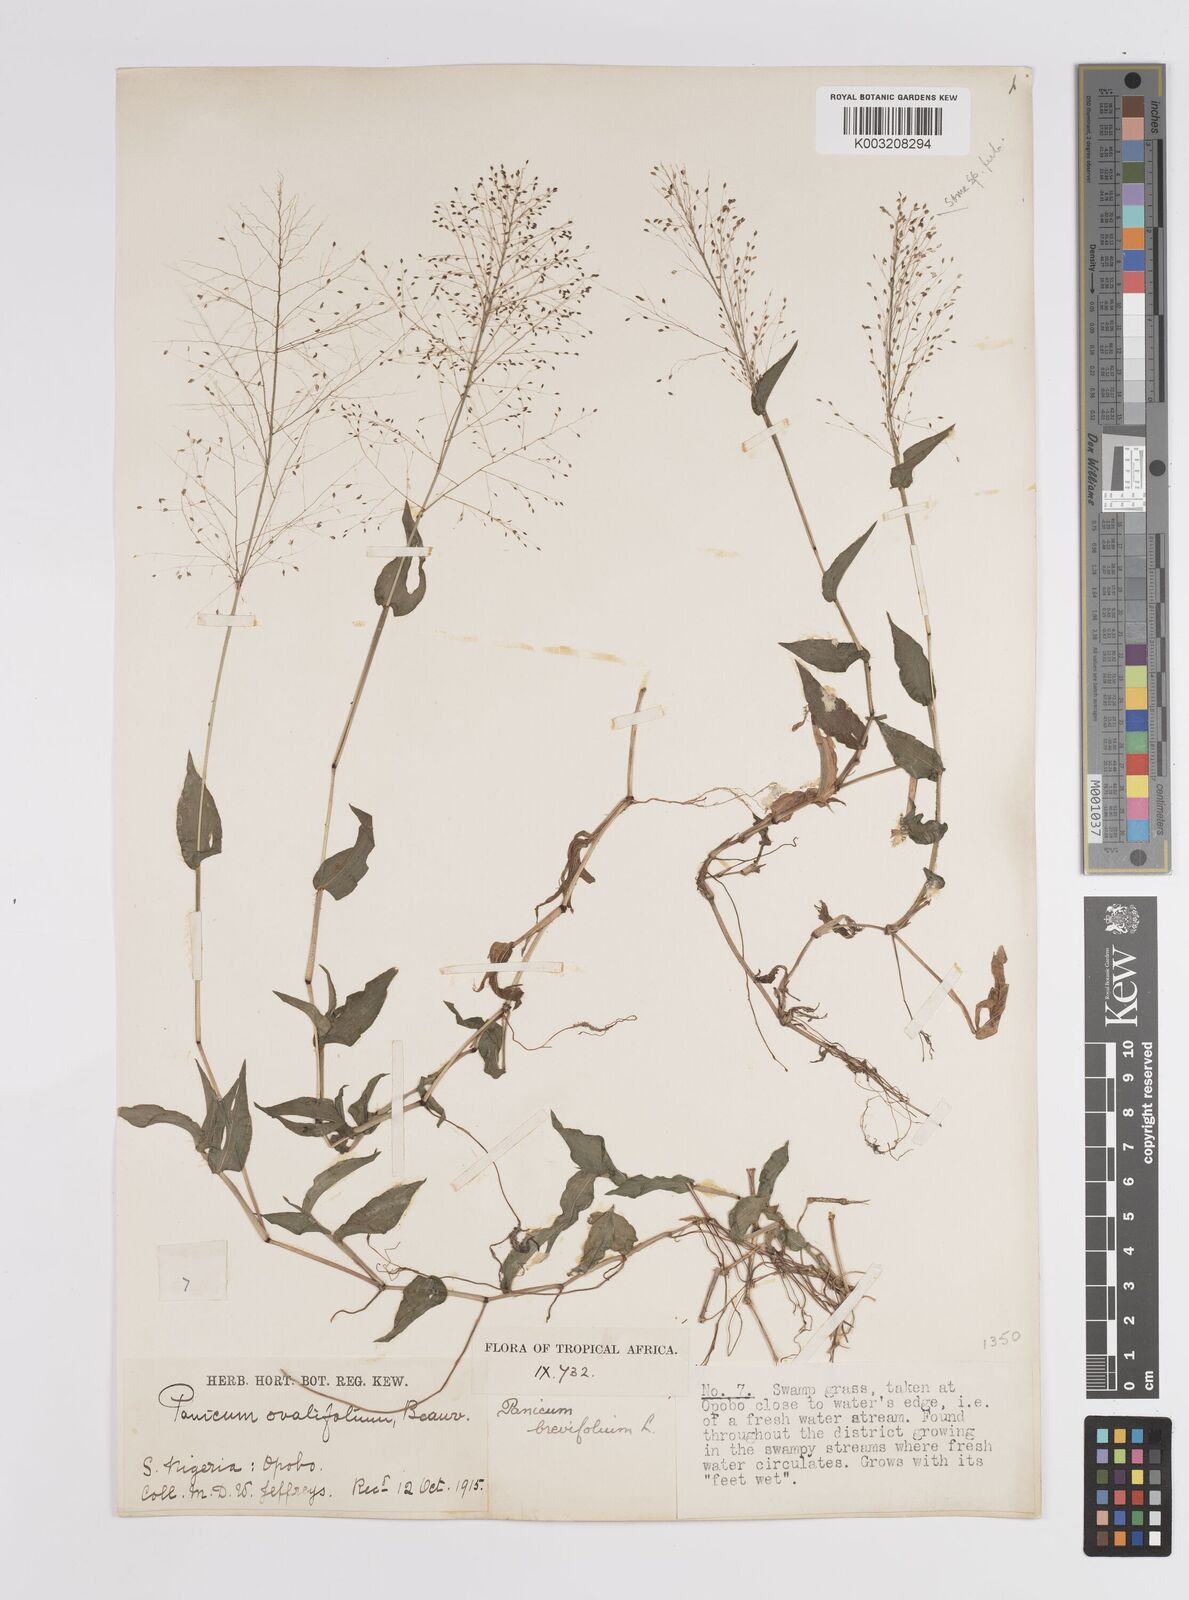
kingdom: Plantae
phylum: Tracheophyta
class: Liliopsida
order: Poales
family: Poaceae
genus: Panicum
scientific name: Panicum brevifolium
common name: Shortleaf panic grass
